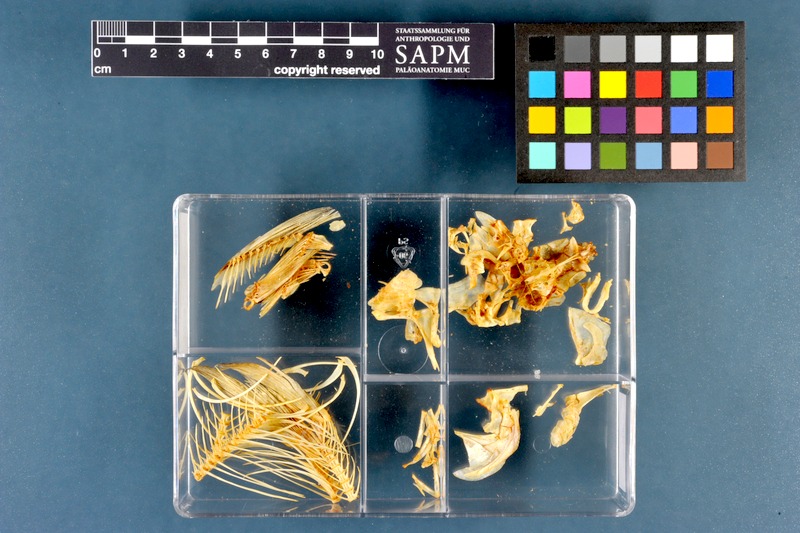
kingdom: Animalia
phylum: Chordata
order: Cypriniformes
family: Cyprinidae
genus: Rutilus
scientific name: Rutilus rutilus
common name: Roach
